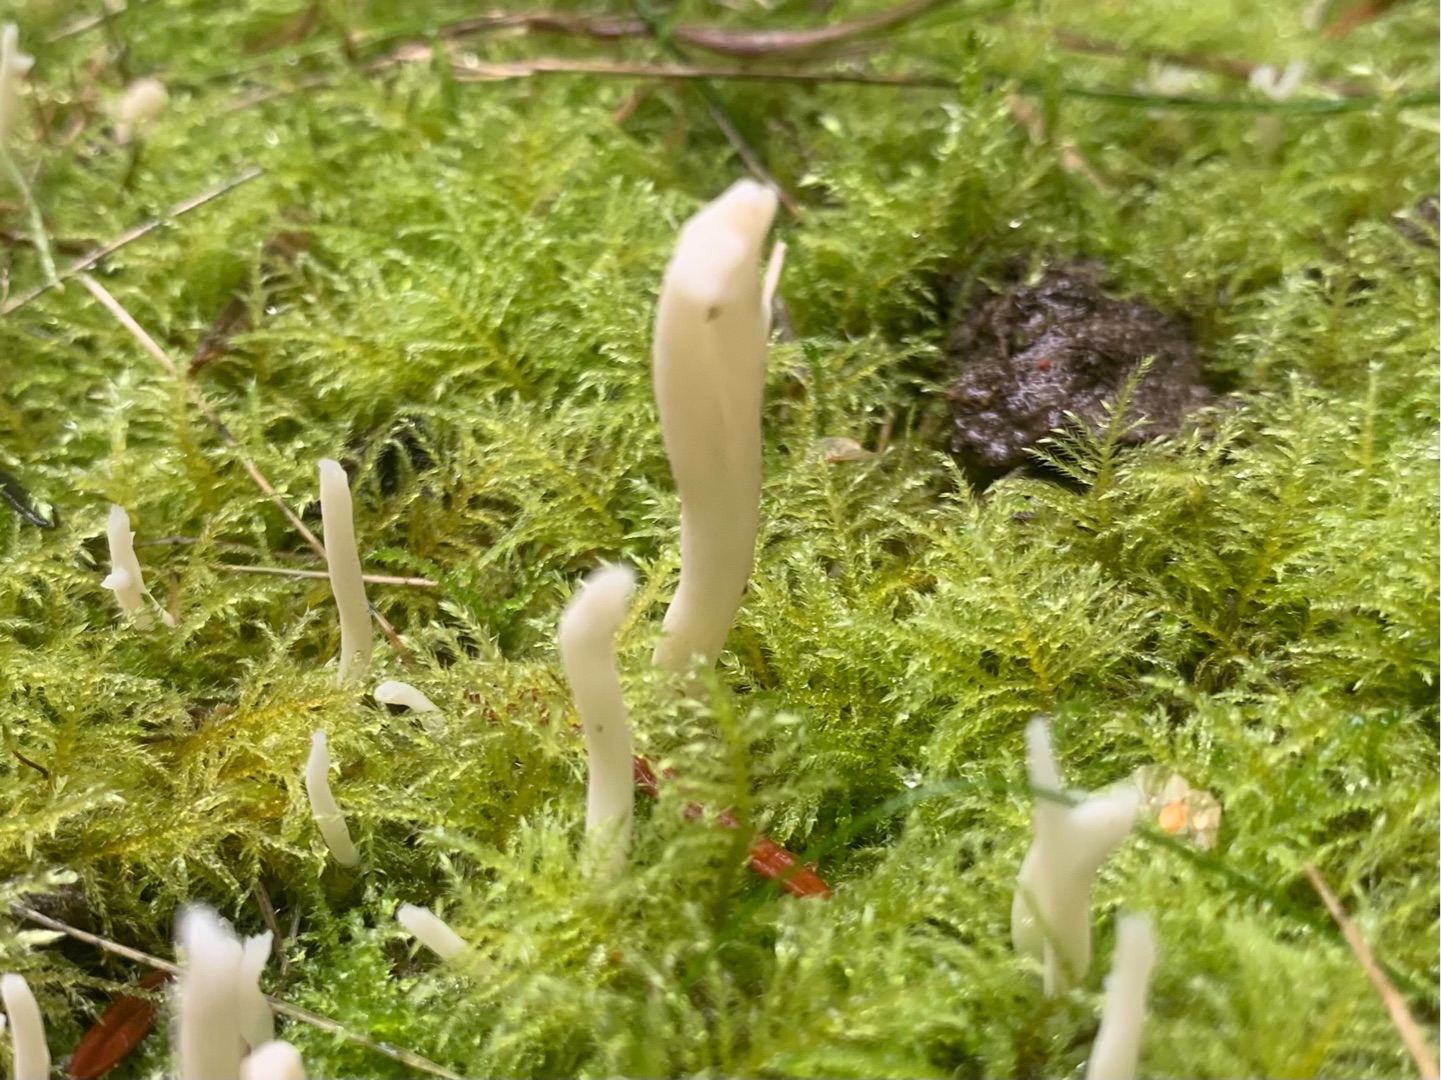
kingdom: Fungi
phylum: Basidiomycota
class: Agaricomycetes
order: Cantharellales
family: Hydnaceae
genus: Clavulina
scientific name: Clavulina rugosa
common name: Rynket troldkølle
